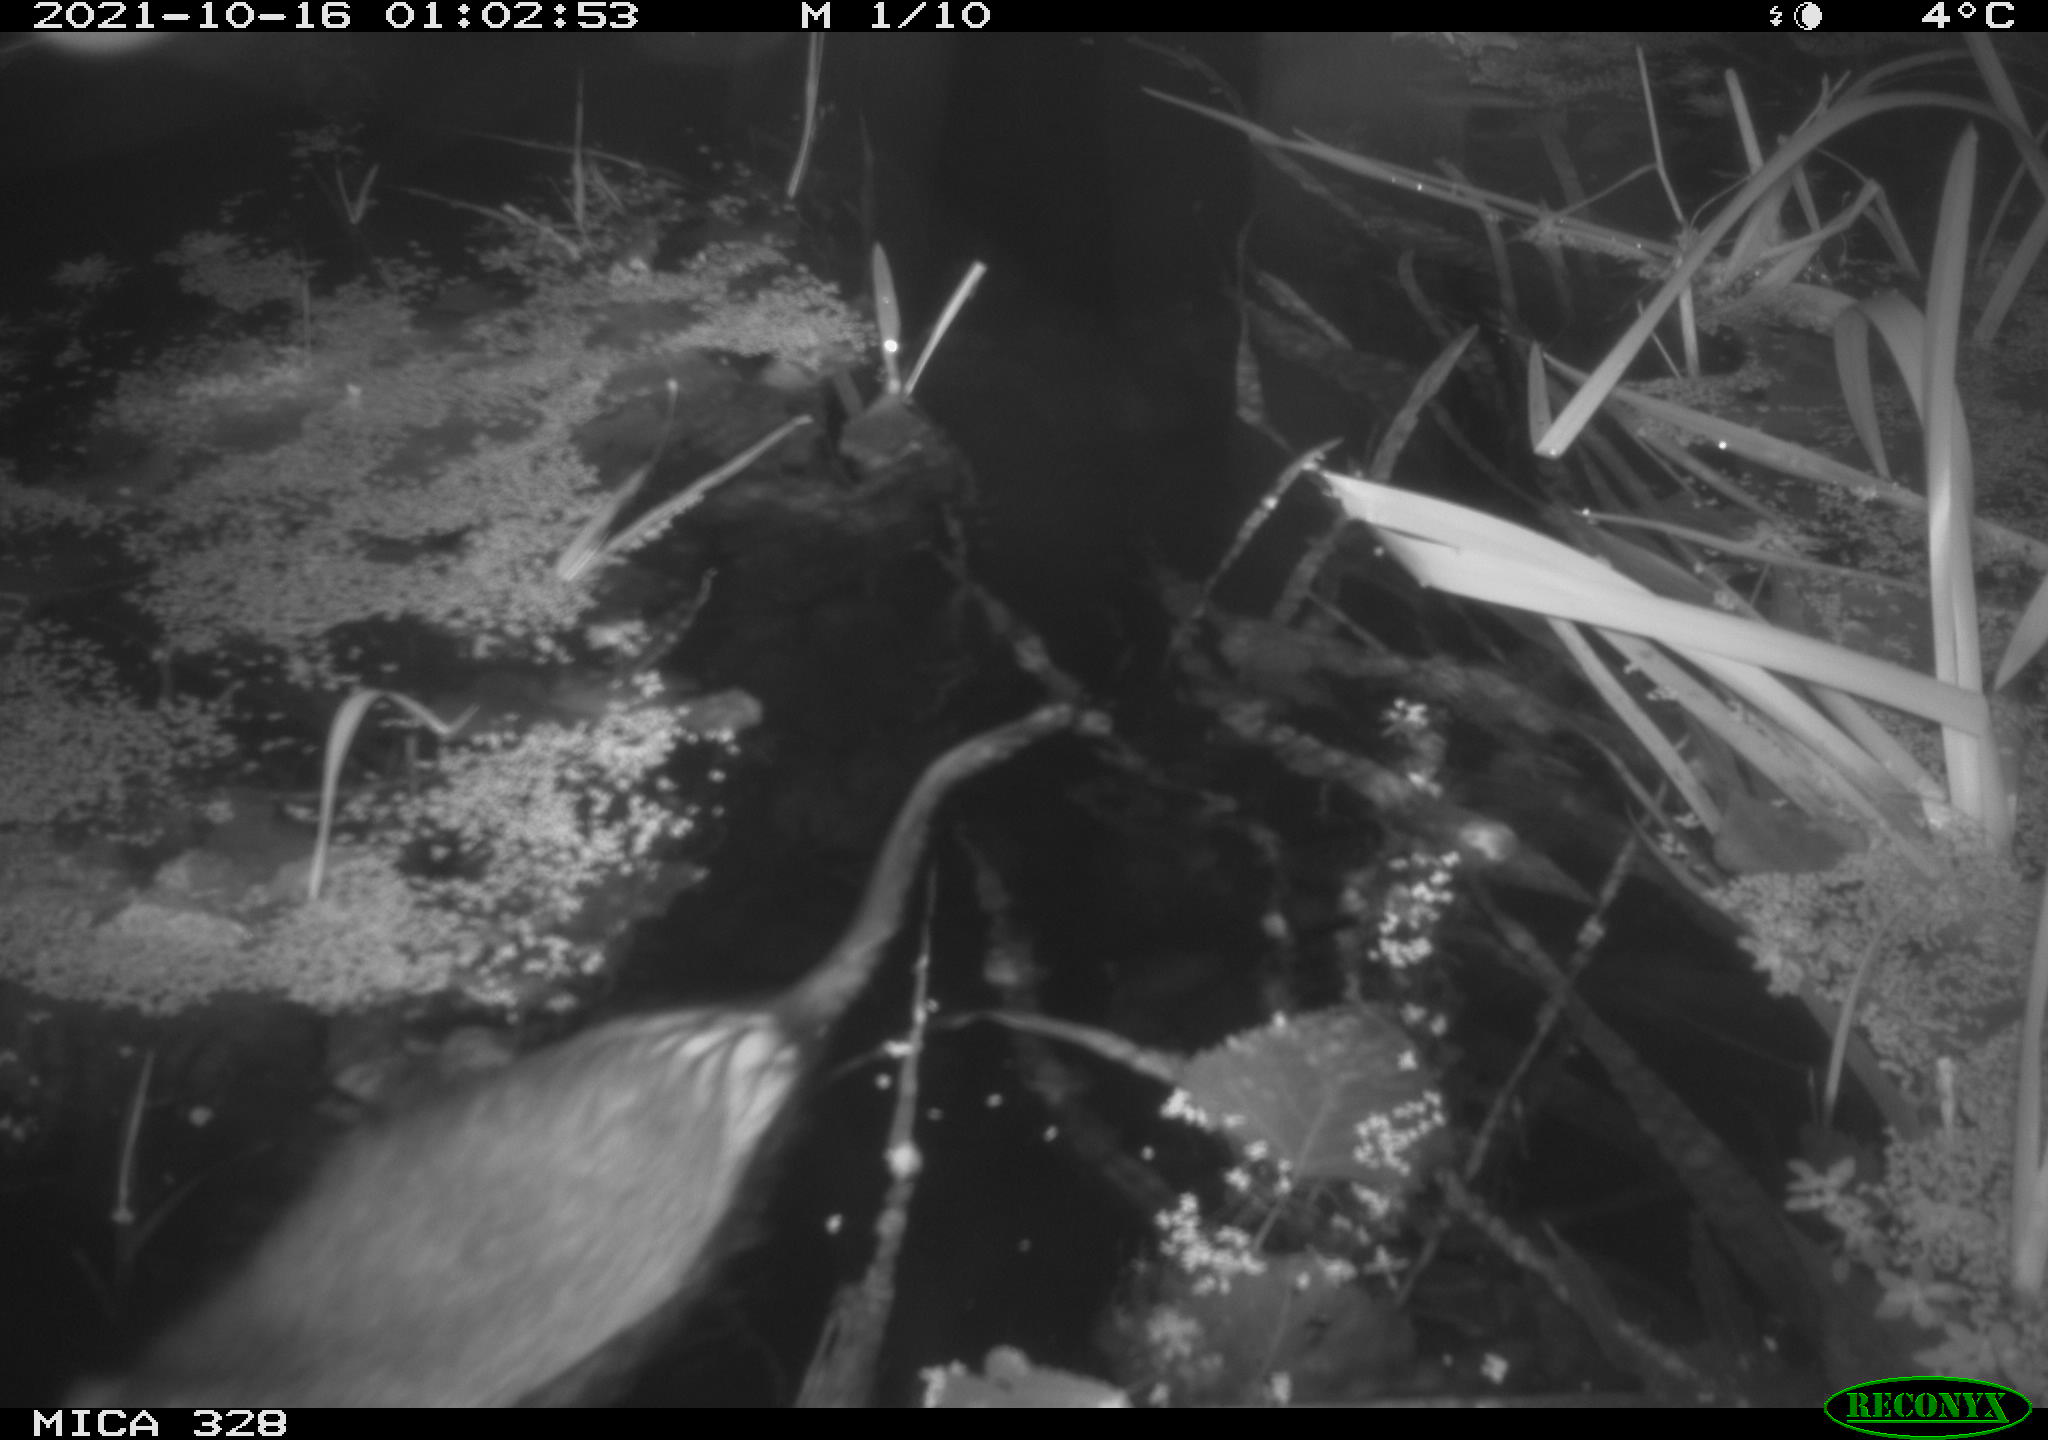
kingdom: Animalia
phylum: Chordata
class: Mammalia
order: Rodentia
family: Cricetidae
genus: Ondatra
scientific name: Ondatra zibethicus
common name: Muskrat
